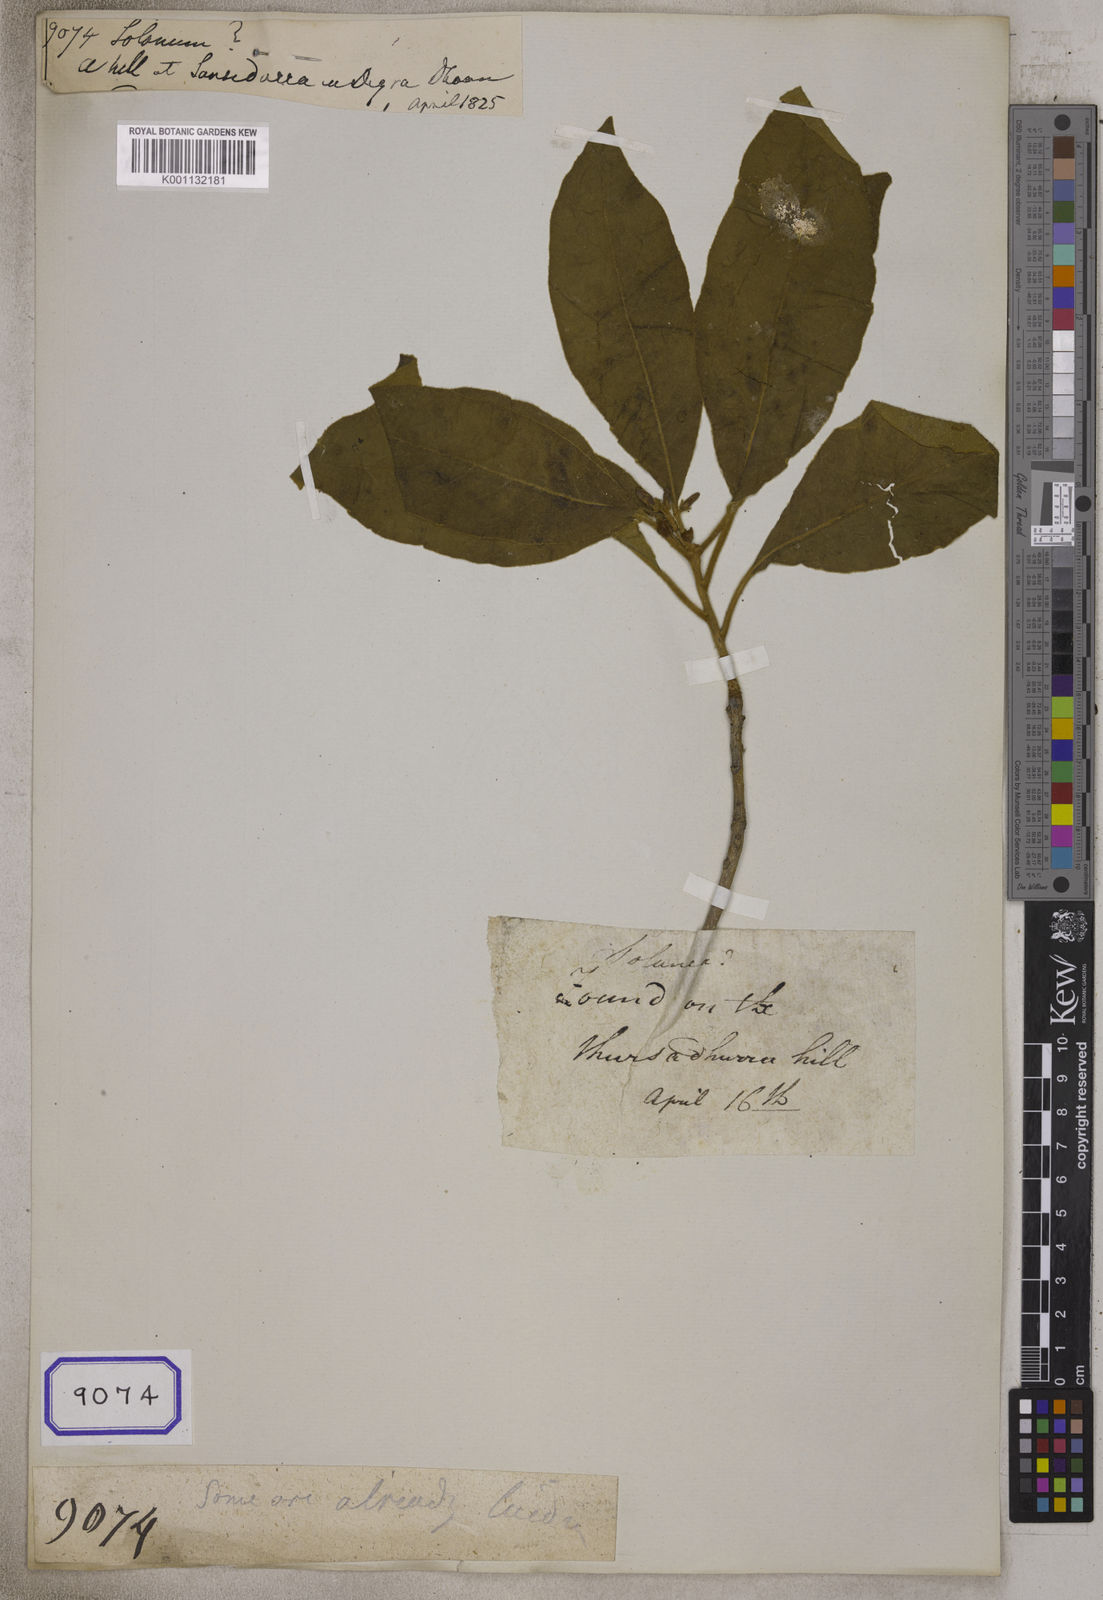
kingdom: Plantae
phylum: Tracheophyta
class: Magnoliopsida
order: Solanales
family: Solanaceae
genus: Solanum
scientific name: Solanum
